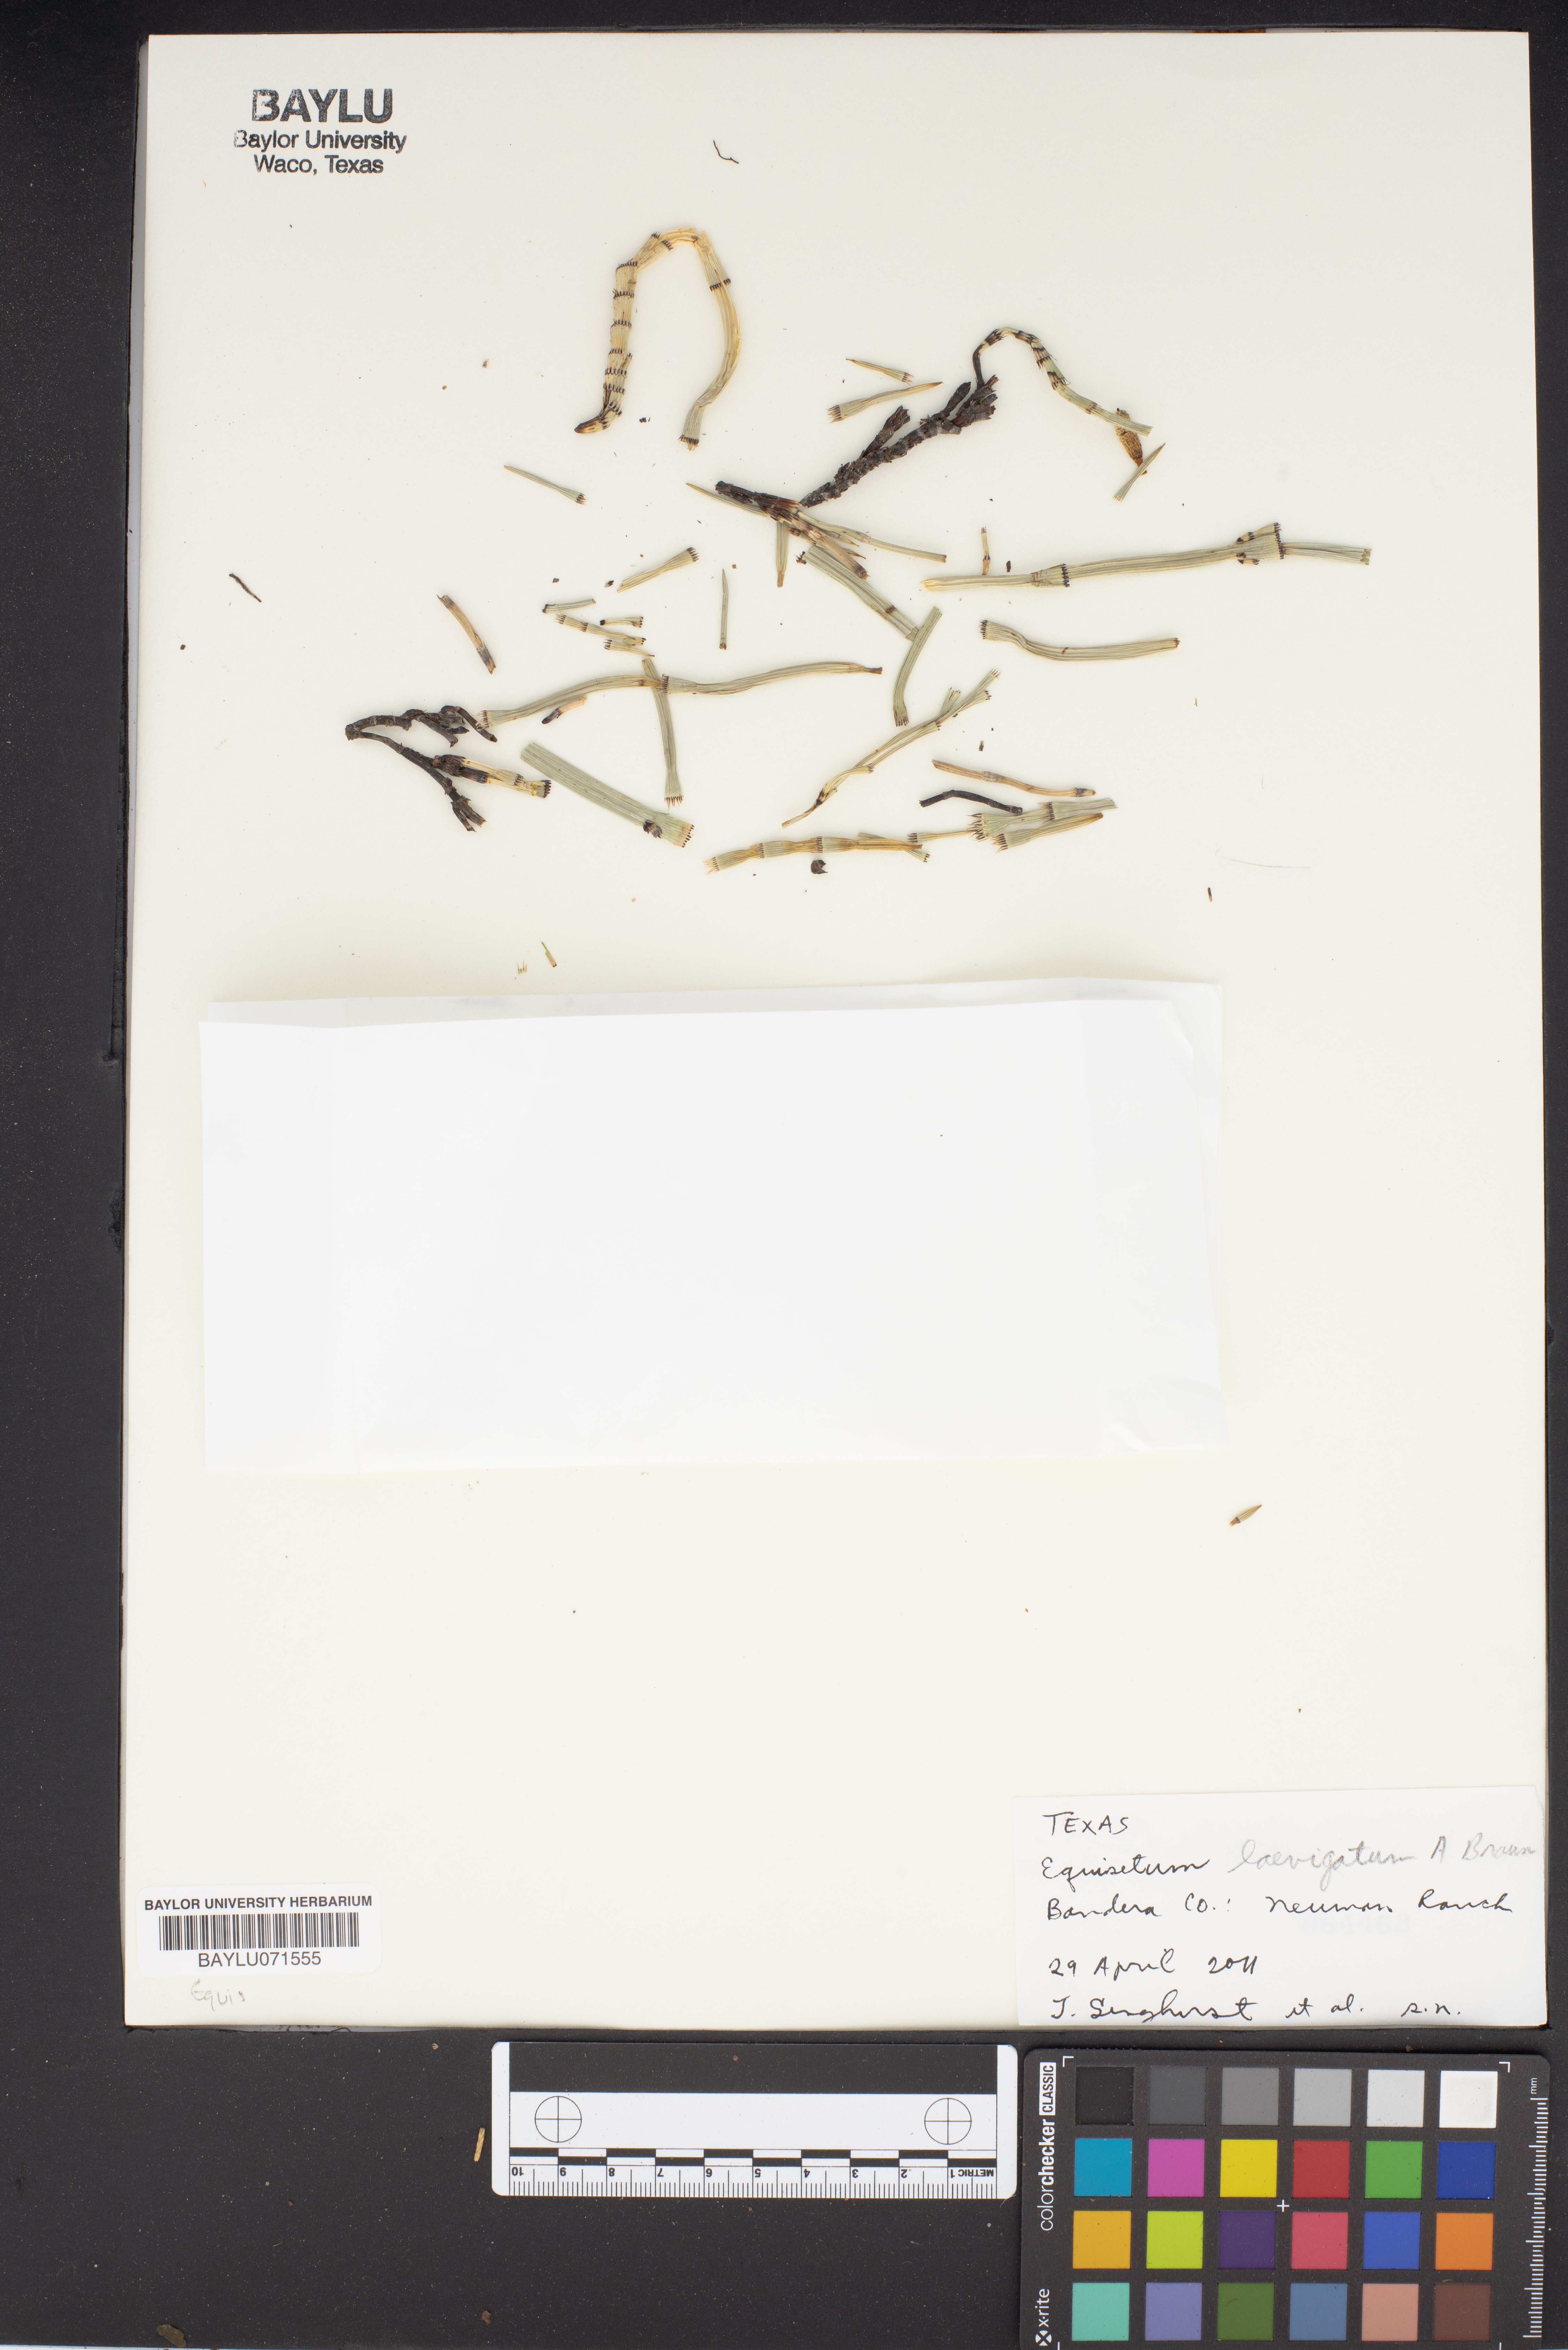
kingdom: Plantae
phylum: Tracheophyta
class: Polypodiopsida
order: Equisetales
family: Equisetaceae
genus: Equisetum
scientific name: Equisetum laevigatum
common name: Smooth scouring-rush
